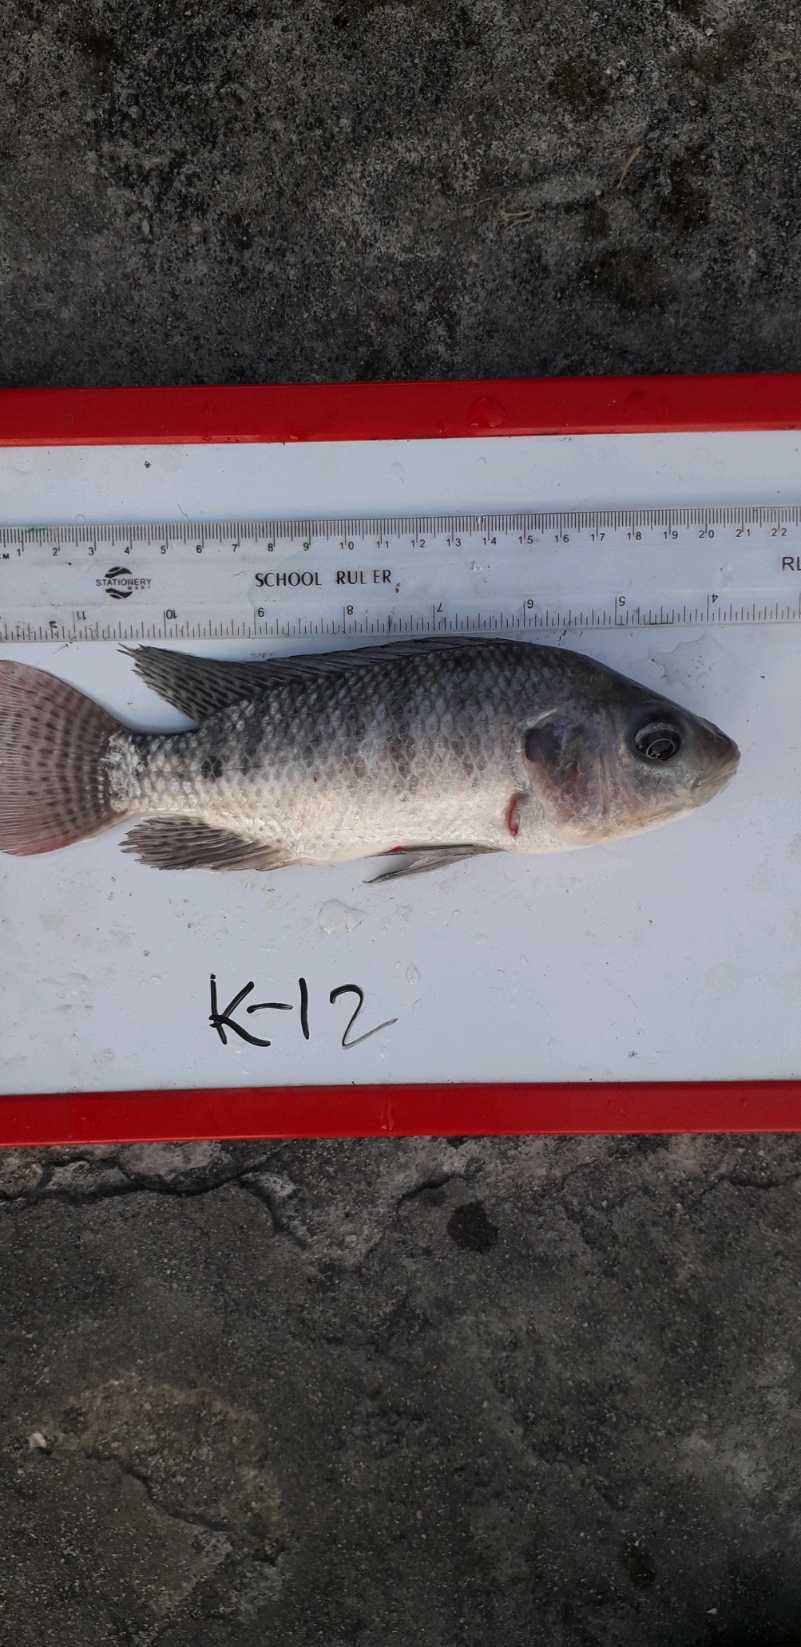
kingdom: Animalia
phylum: Chordata
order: Perciformes
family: Cichlidae
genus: Oreochromis
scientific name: Oreochromis niloticus
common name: Nile tilapia
